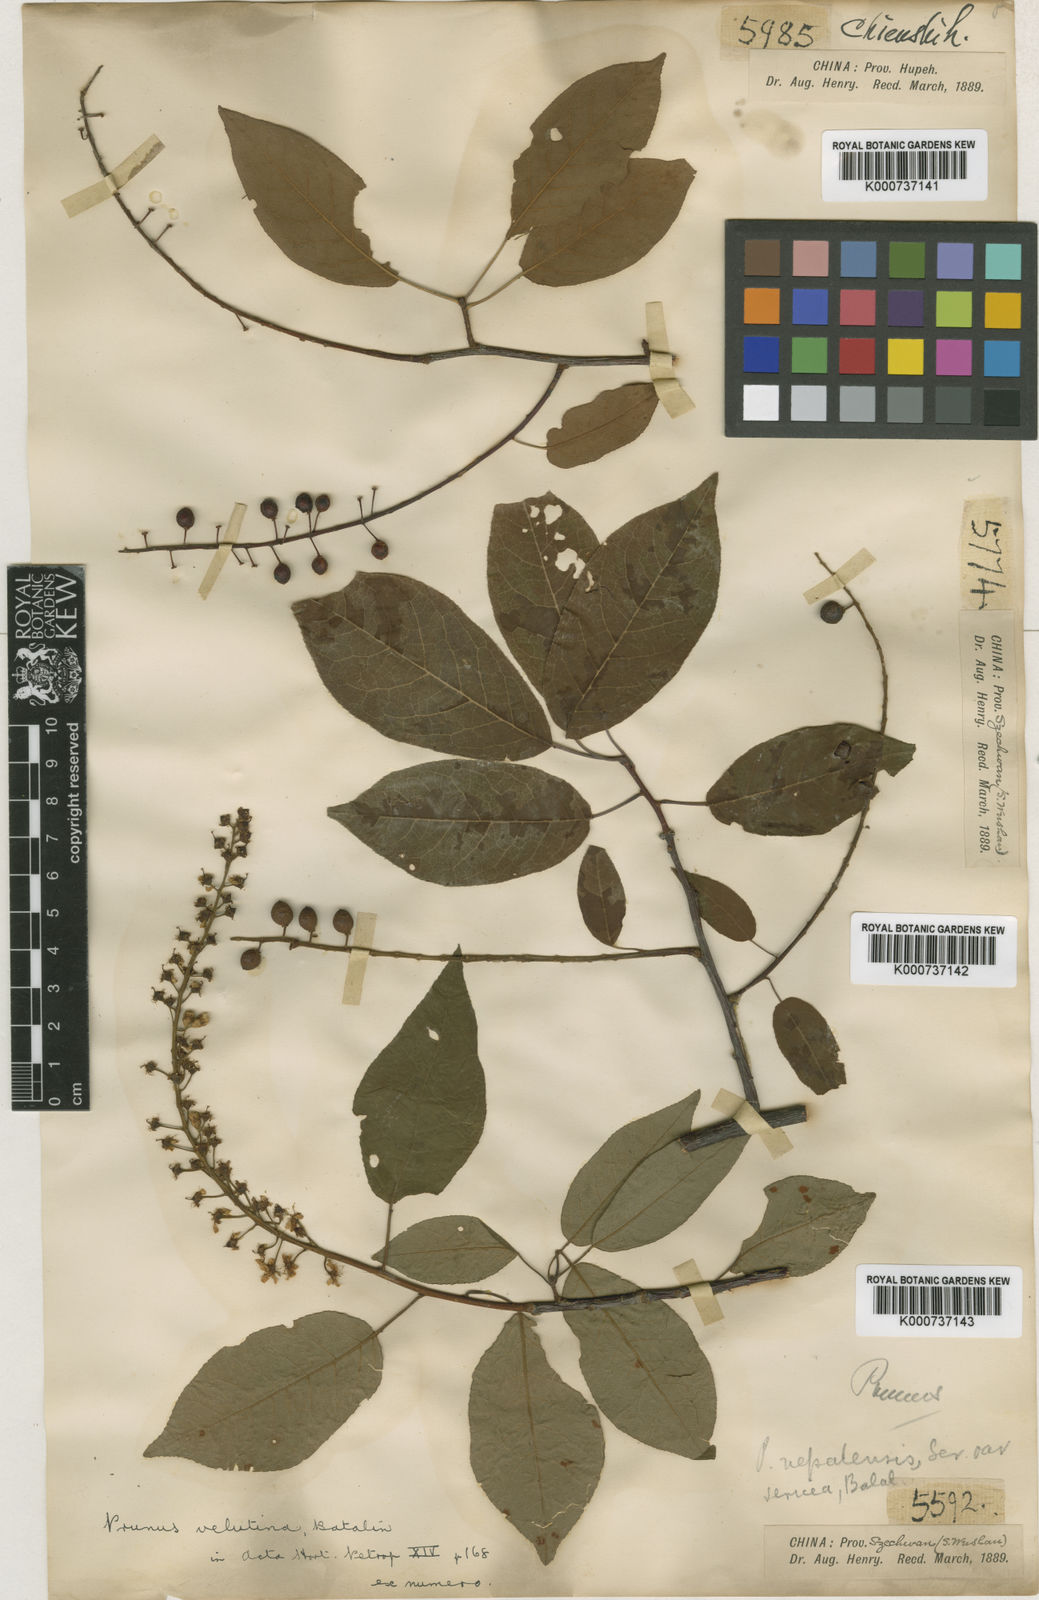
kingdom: Plantae
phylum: Tracheophyta
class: Magnoliopsida
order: Rosales
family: Rosaceae
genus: Prunus
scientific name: Prunus velutina
